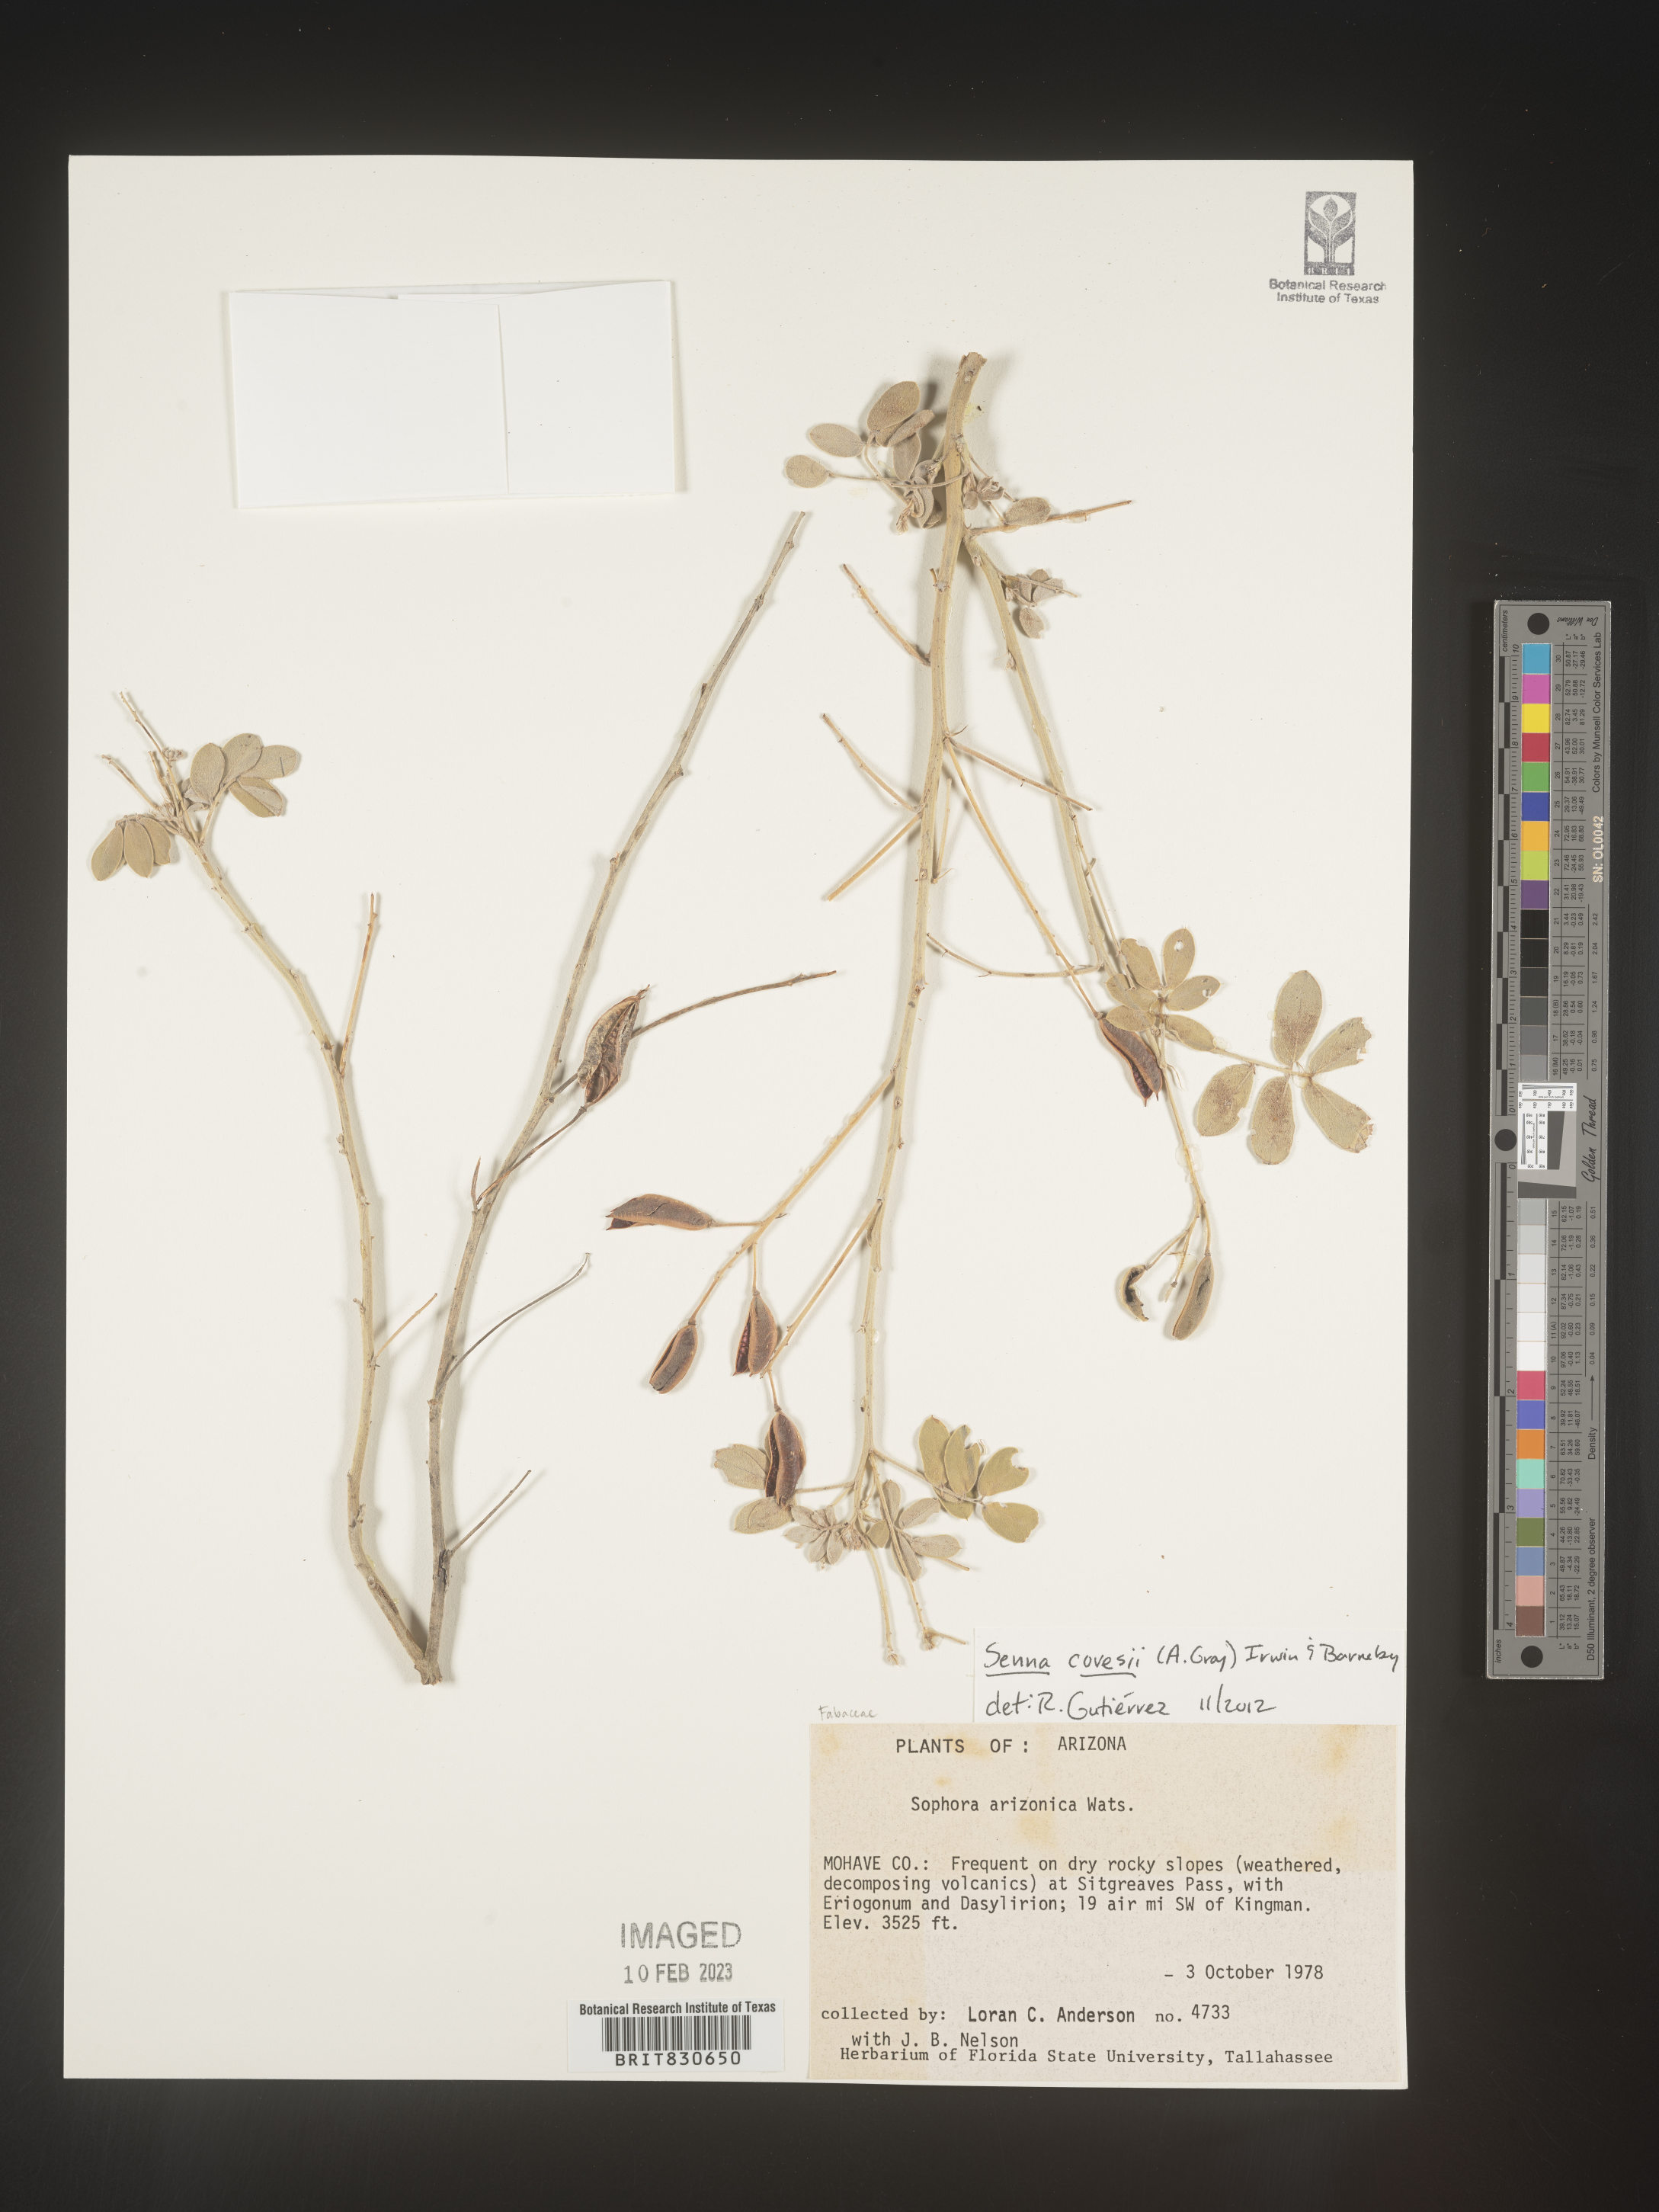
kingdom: Plantae
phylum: Tracheophyta
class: Magnoliopsida
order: Fabales
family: Fabaceae
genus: Senna
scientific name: Senna
